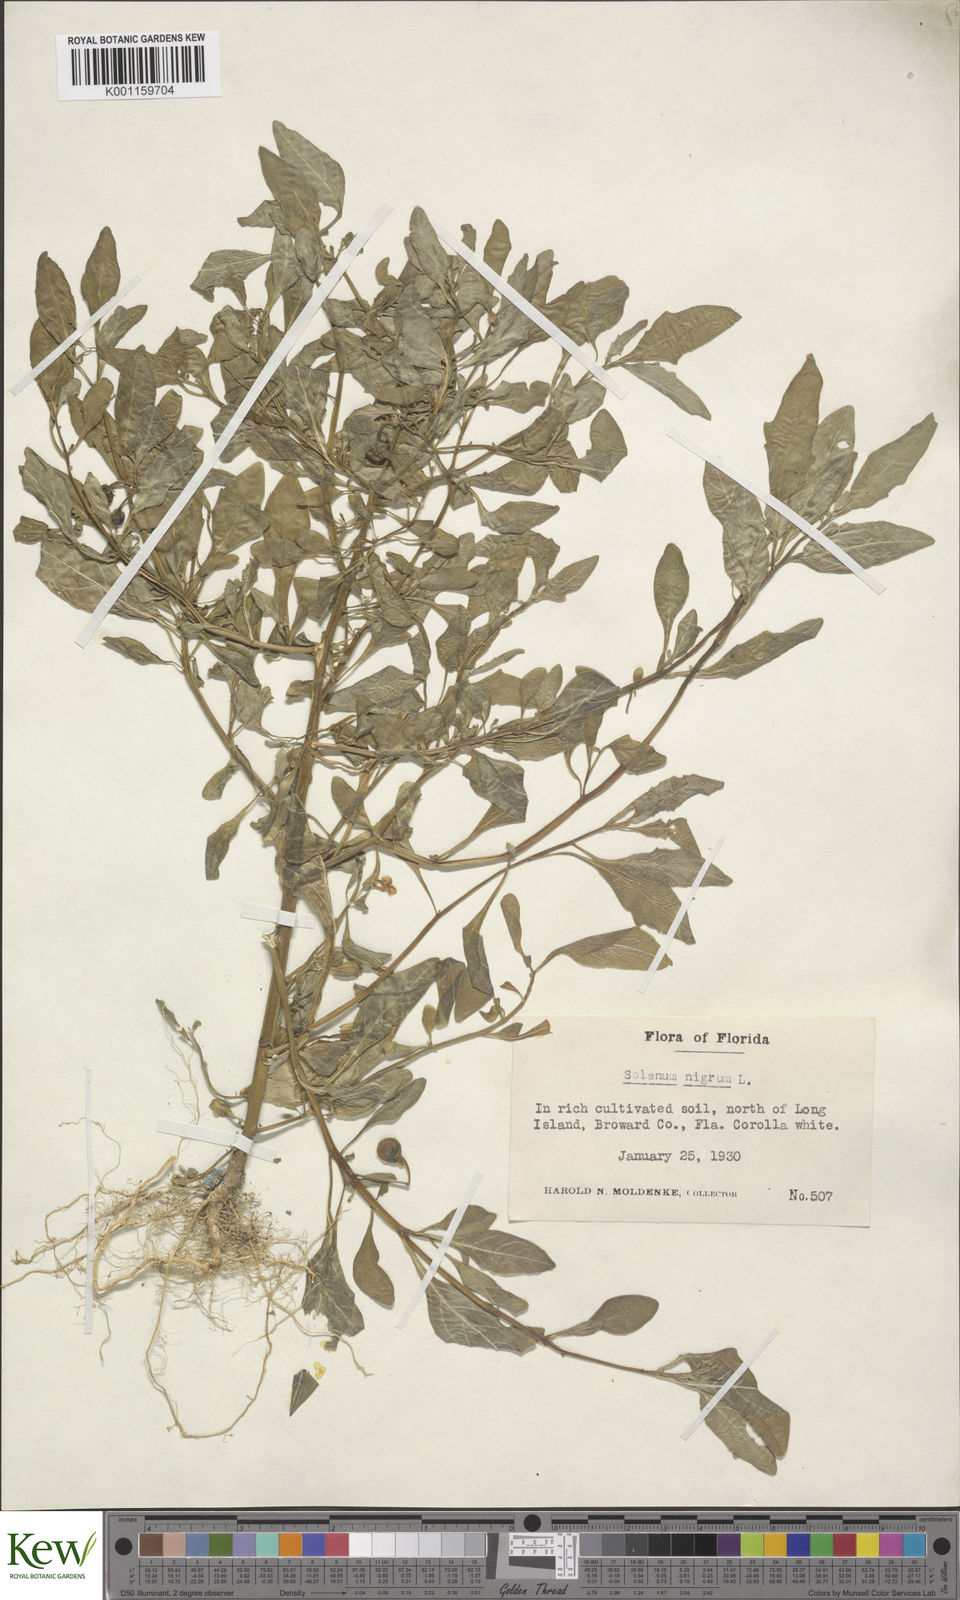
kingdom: Plantae
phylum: Tracheophyta
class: Magnoliopsida
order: Solanales
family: Solanaceae
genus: Solanum
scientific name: Solanum pseudogracile
